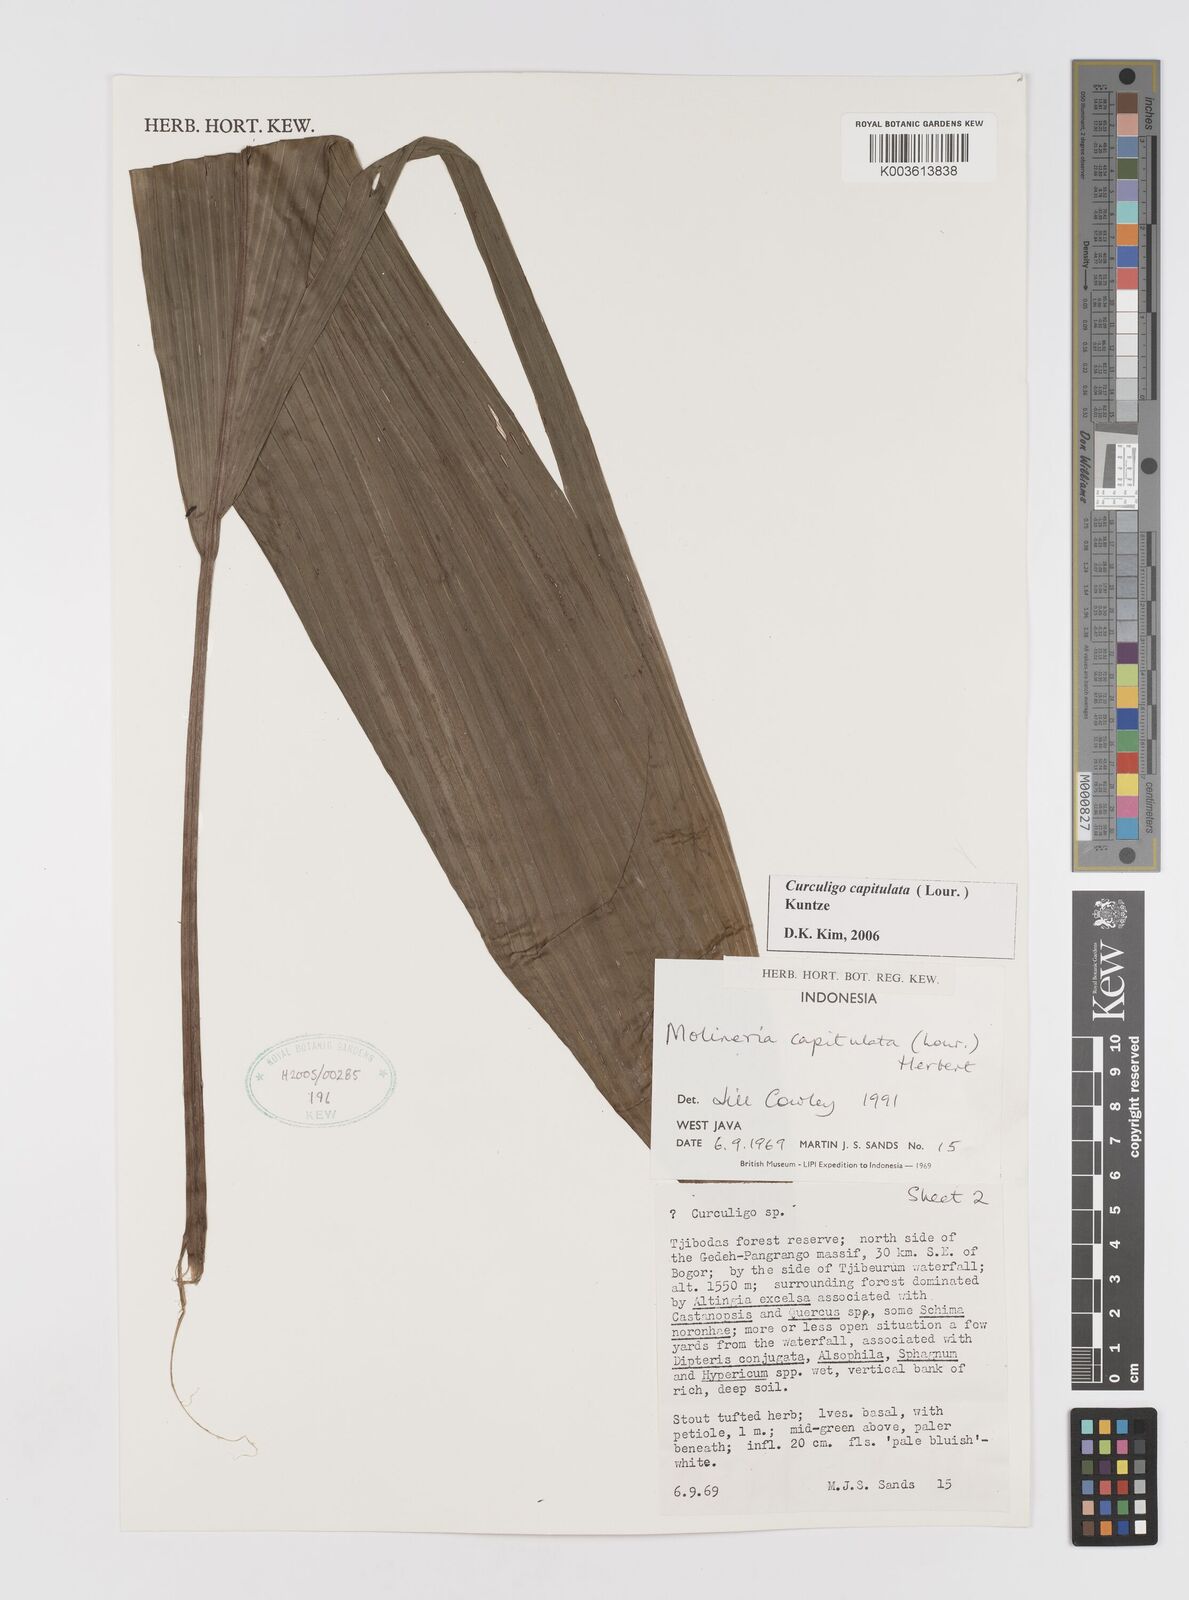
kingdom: Plantae
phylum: Tracheophyta
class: Liliopsida
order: Asparagales
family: Hypoxidaceae
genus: Curculigo
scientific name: Curculigo capitulata
